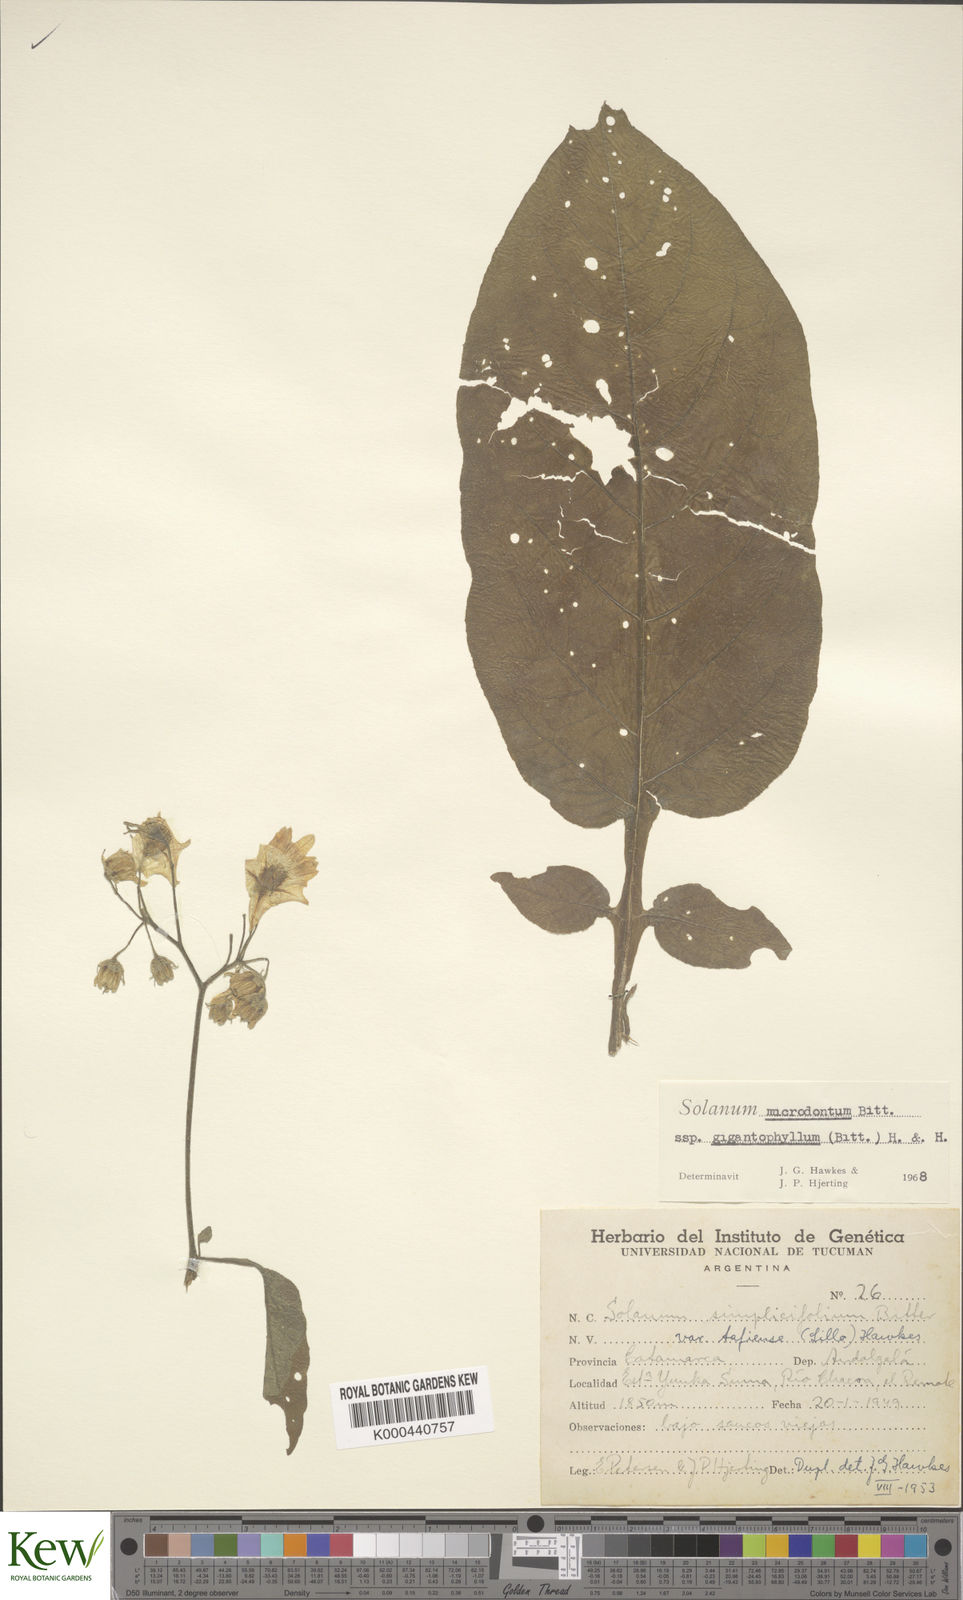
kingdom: Plantae
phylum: Tracheophyta
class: Magnoliopsida
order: Solanales
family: Solanaceae
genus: Solanum
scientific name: Solanum microdontum
